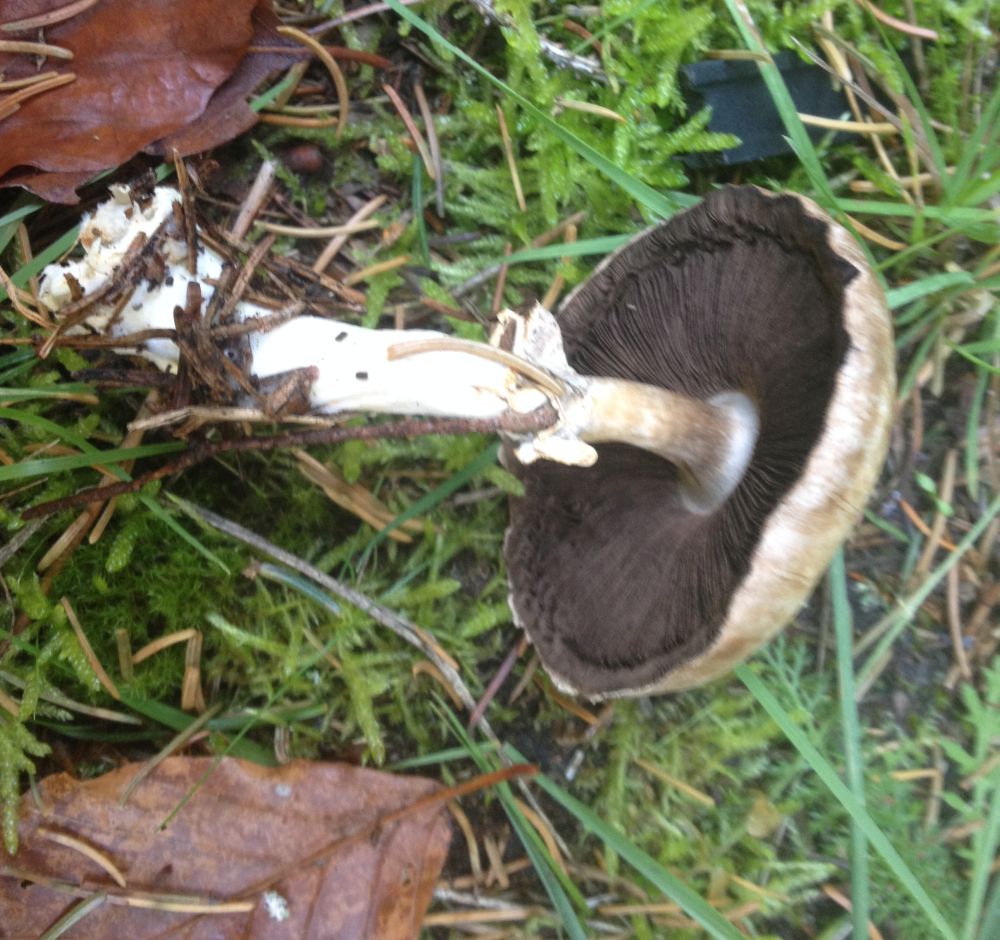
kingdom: Fungi
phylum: Basidiomycota
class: Agaricomycetes
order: Agaricales
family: Agaricaceae
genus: Agaricus
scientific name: Agaricus
